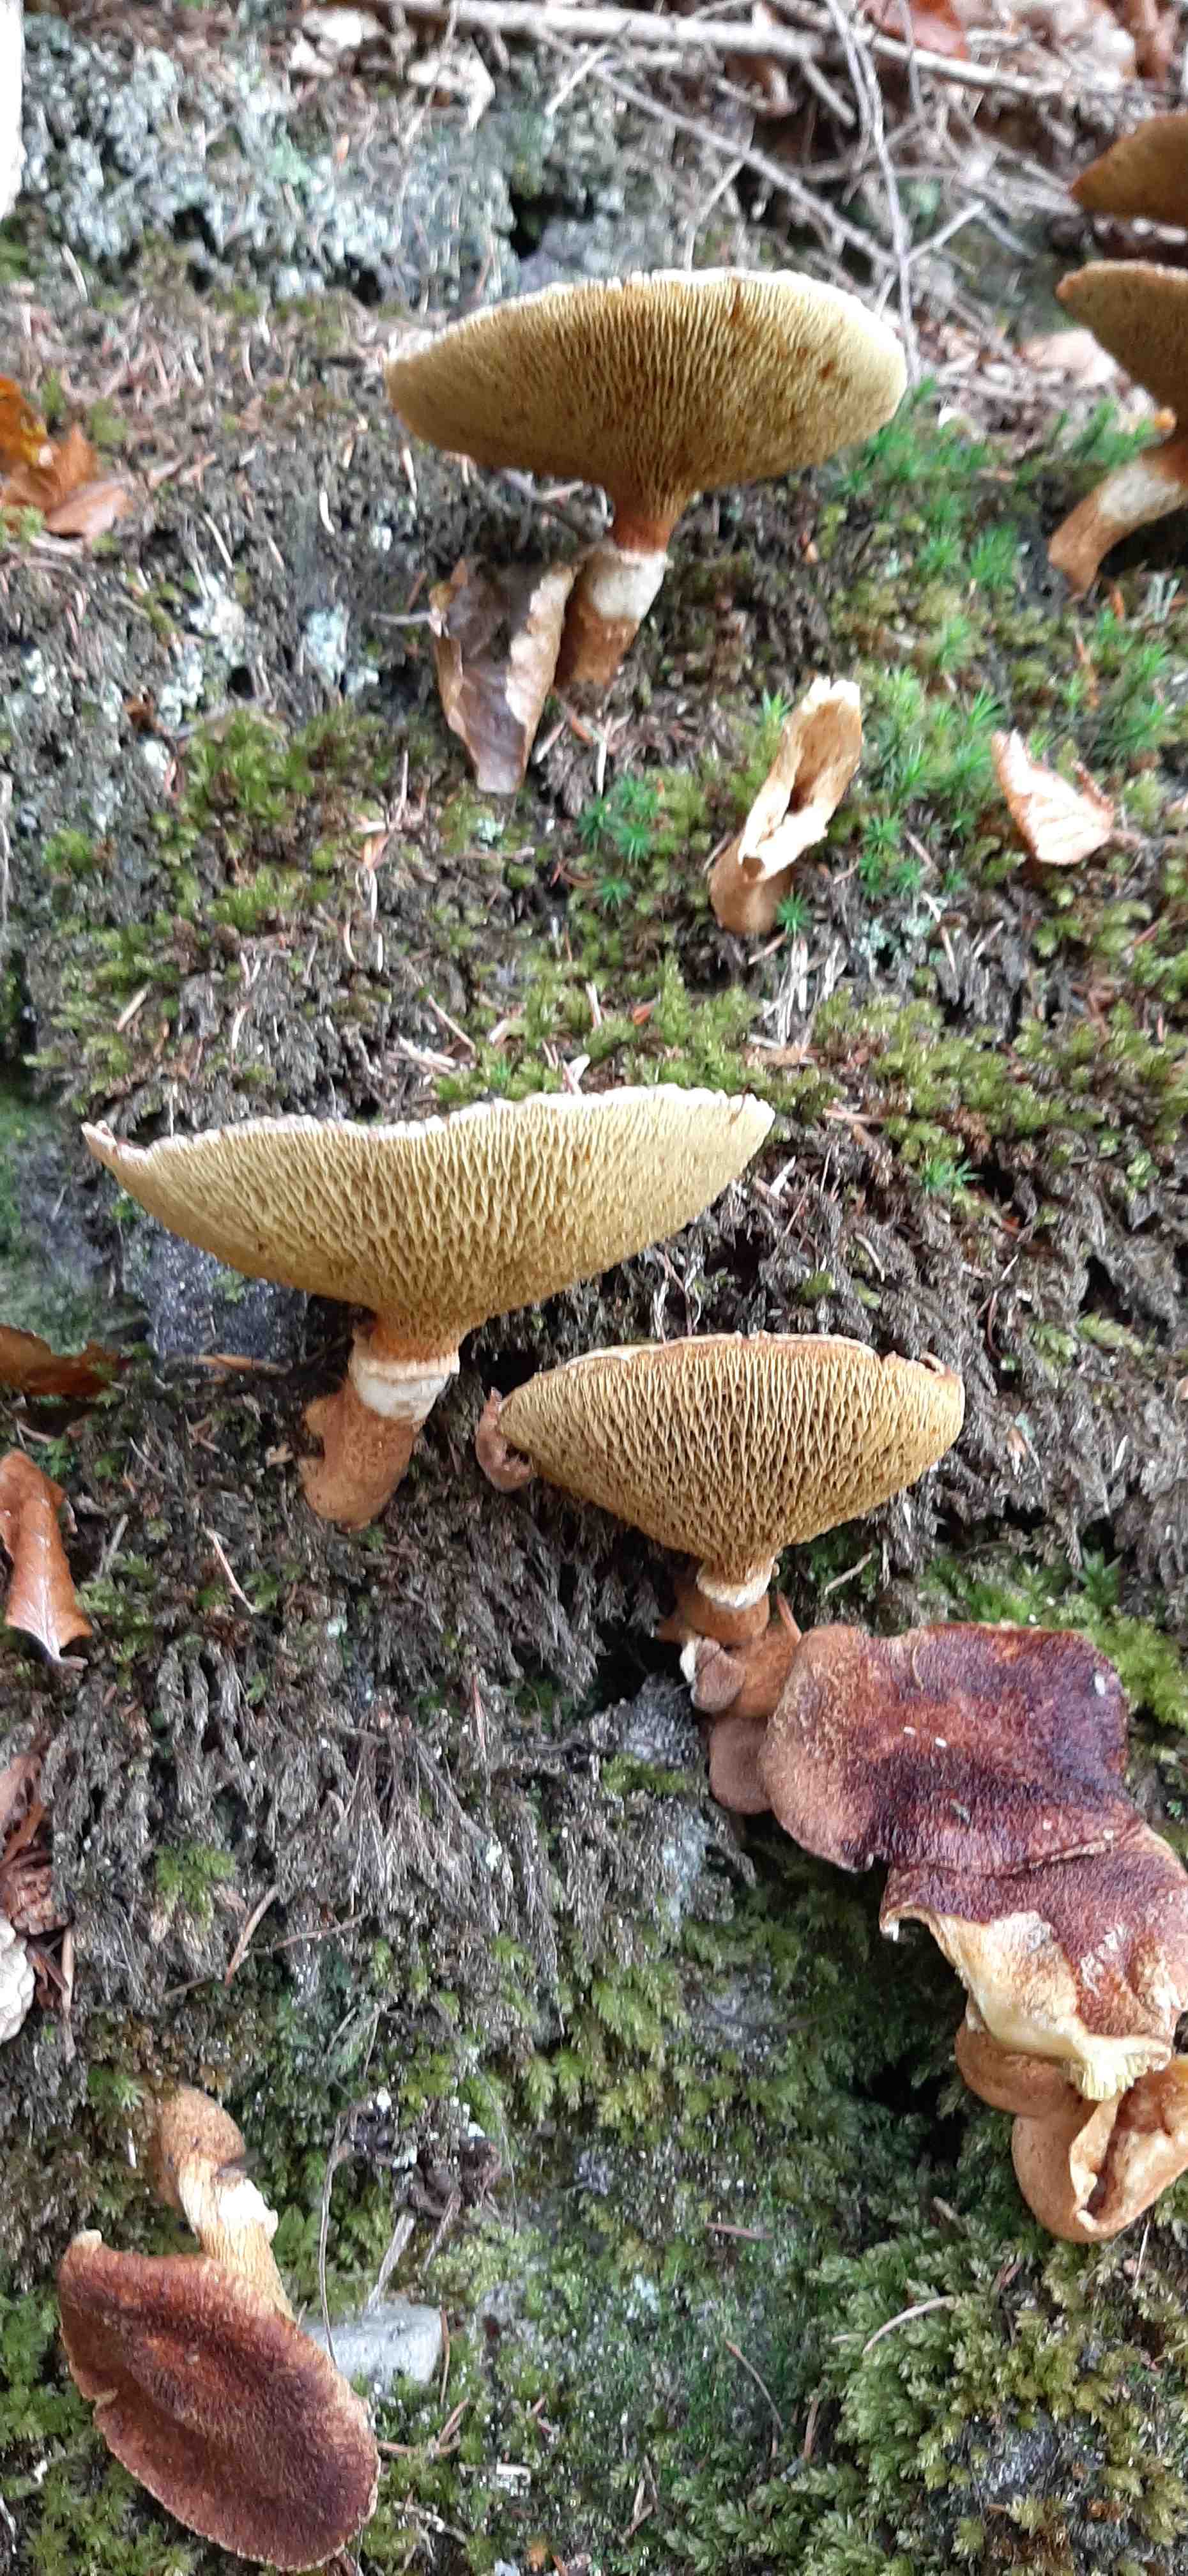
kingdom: Fungi
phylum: Basidiomycota
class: Agaricomycetes
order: Boletales
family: Suillaceae
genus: Suillus
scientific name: Suillus cavipes
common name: hulstokket slimrørhat
